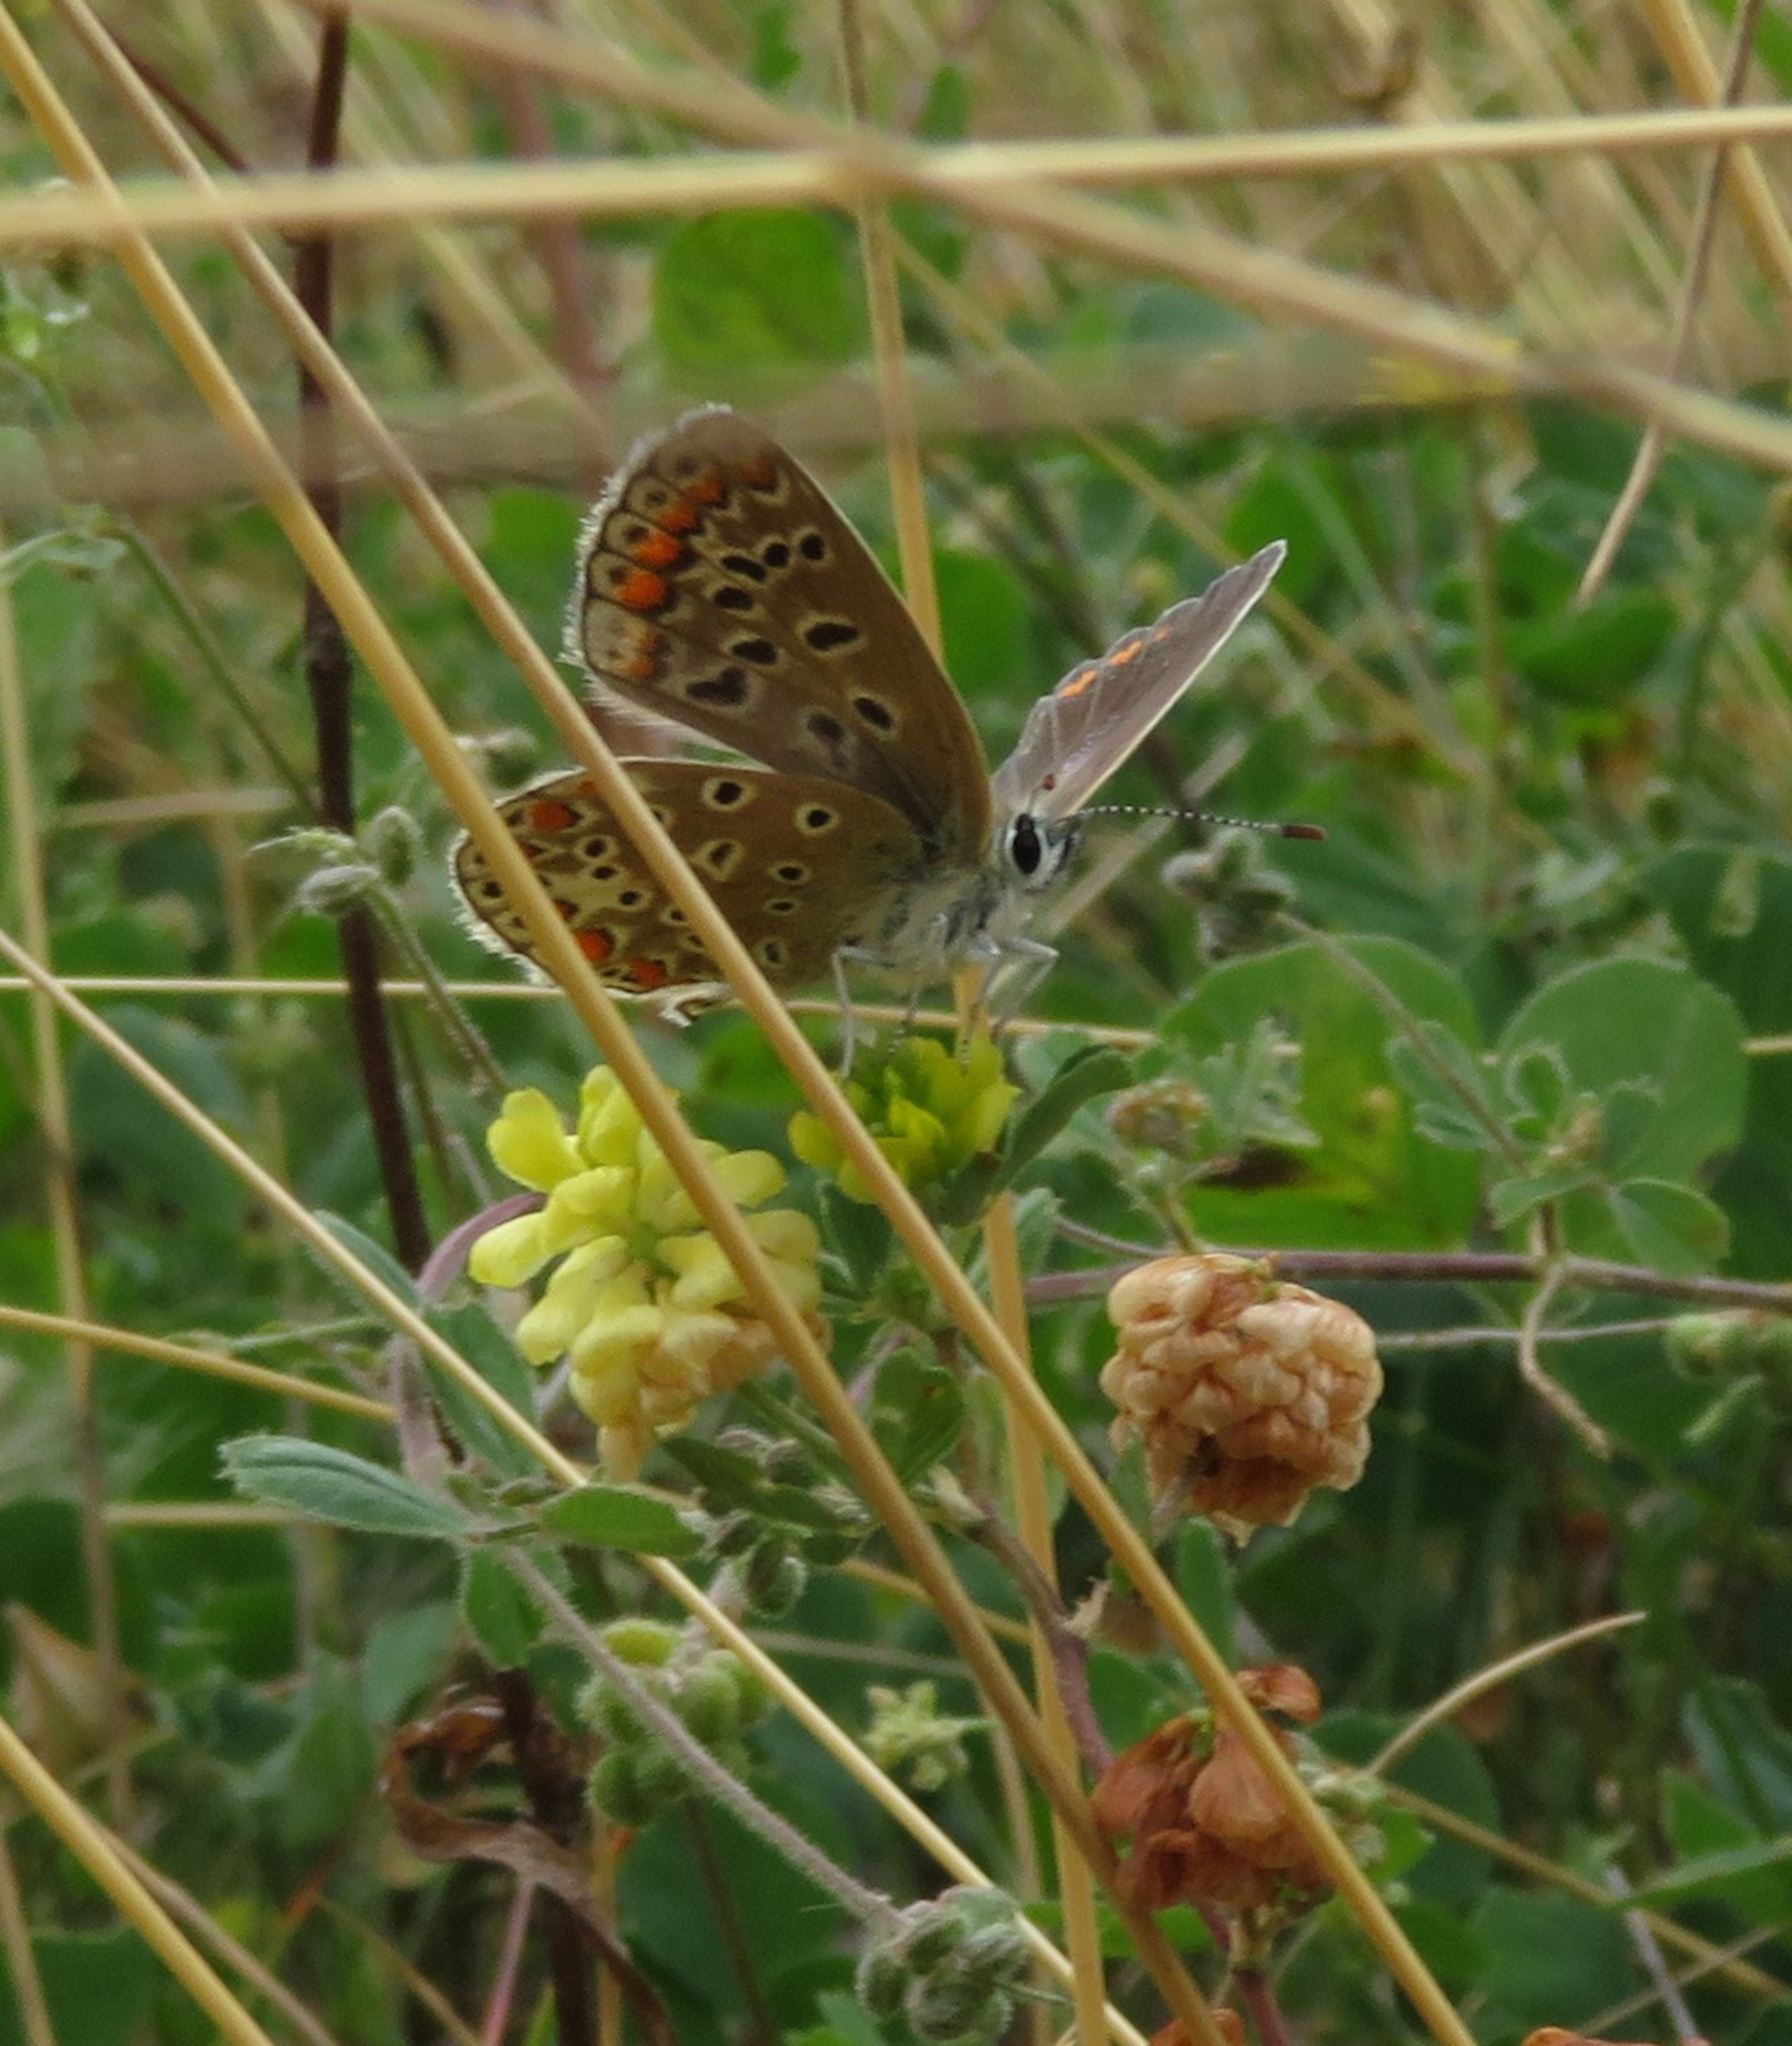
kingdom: Animalia
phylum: Arthropoda
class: Insecta
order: Lepidoptera
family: Lycaenidae
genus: Polyommatus
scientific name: Polyommatus icarus
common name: Almindelig blåfugl
